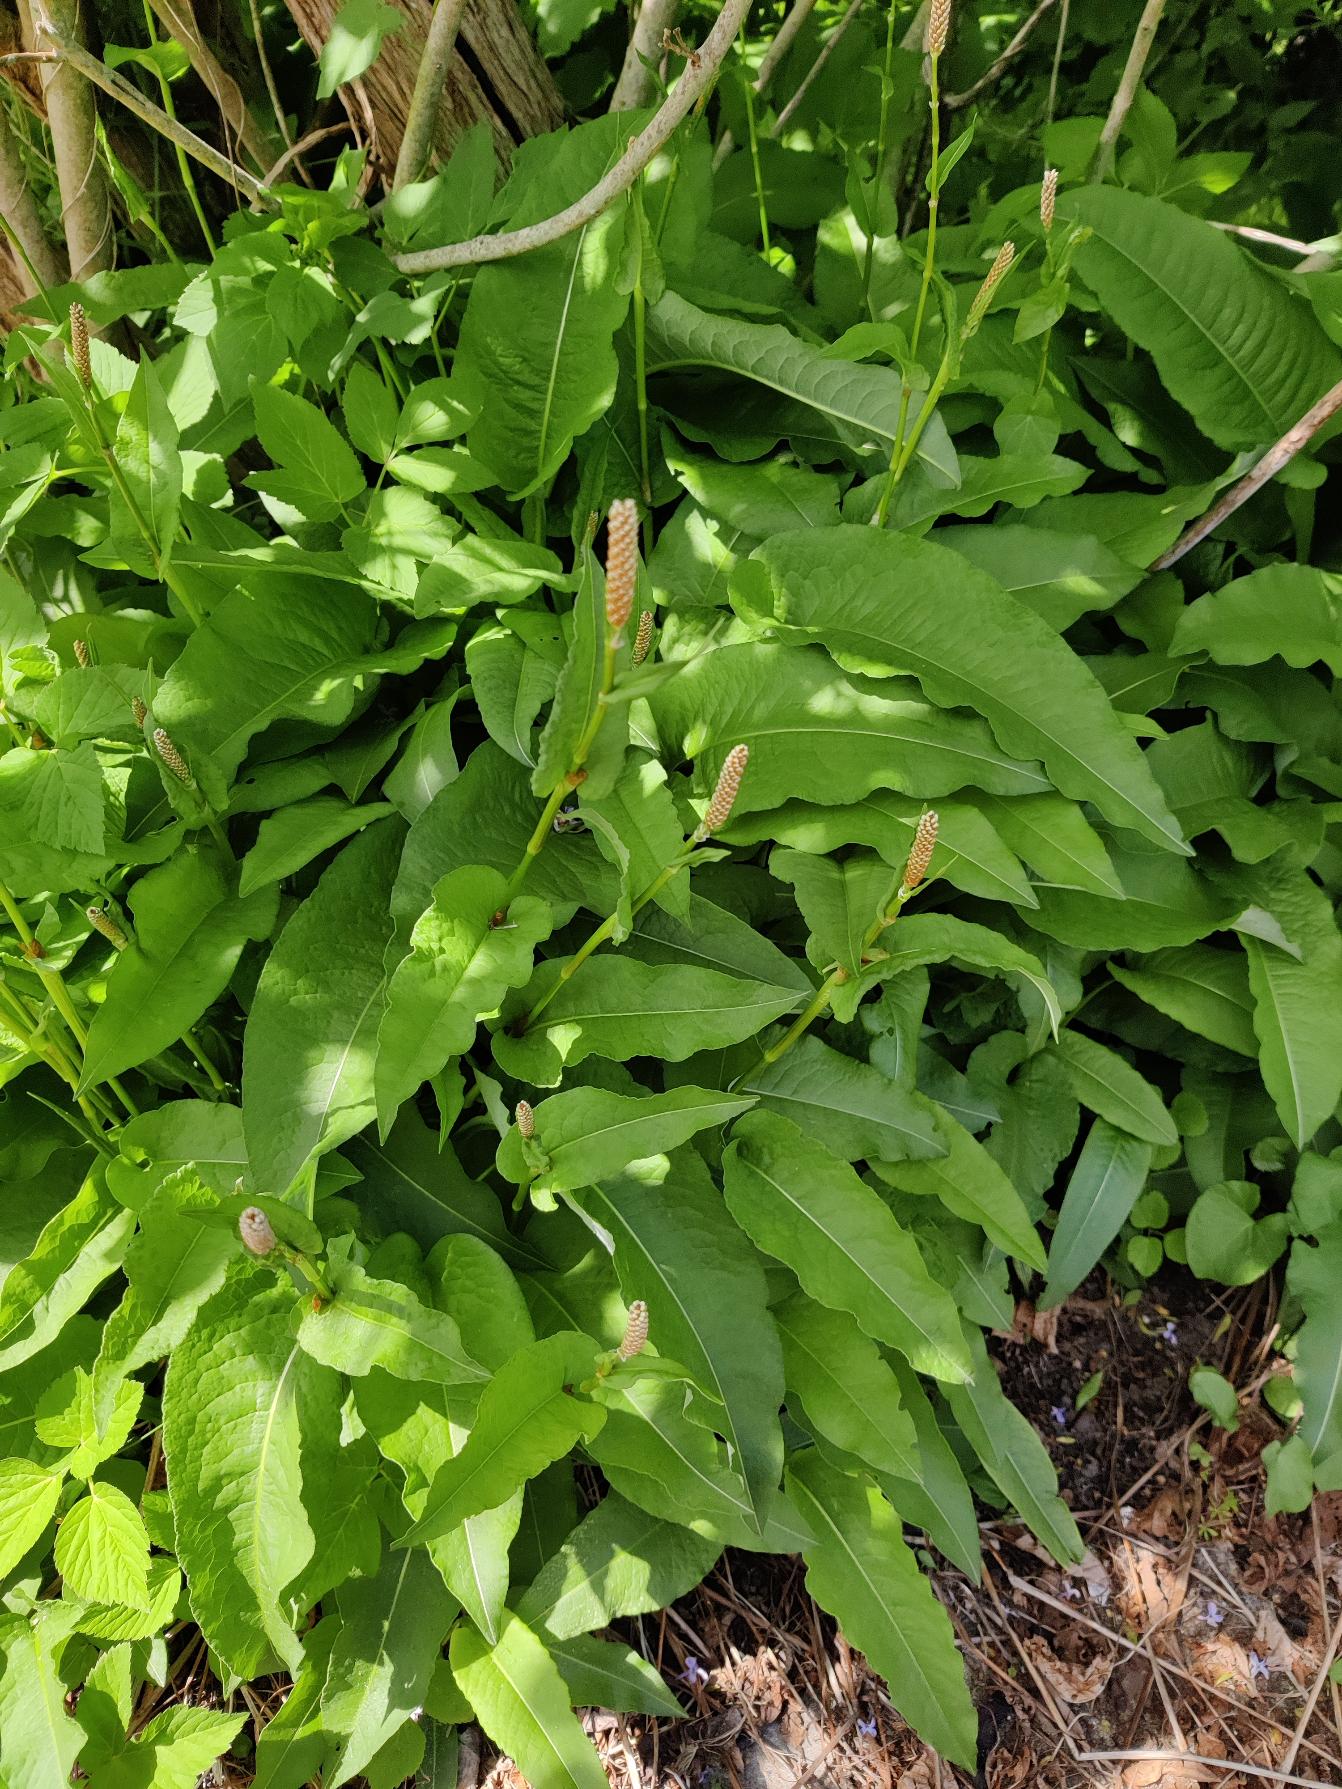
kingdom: Plantae
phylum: Tracheophyta
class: Magnoliopsida
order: Caryophyllales
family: Polygonaceae
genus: Bistorta
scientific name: Bistorta officinalis
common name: Slangeurt
